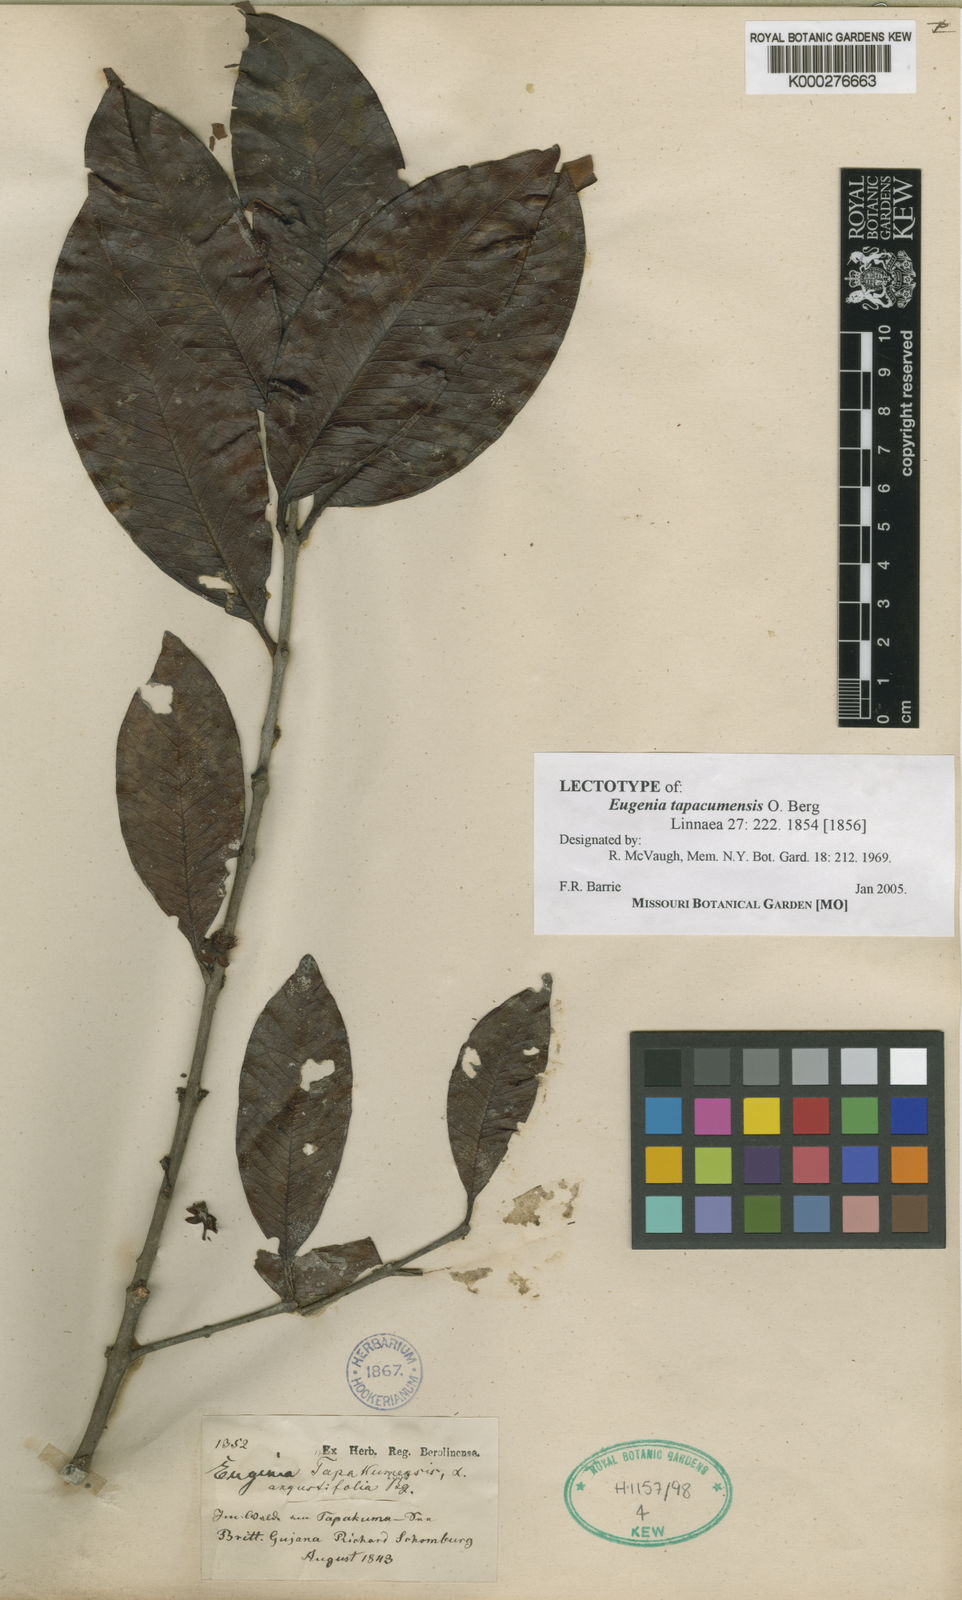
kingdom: Plantae
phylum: Tracheophyta
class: Magnoliopsida
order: Myrtales
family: Myrtaceae
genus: Eugenia
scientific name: Eugenia tapacumensis
